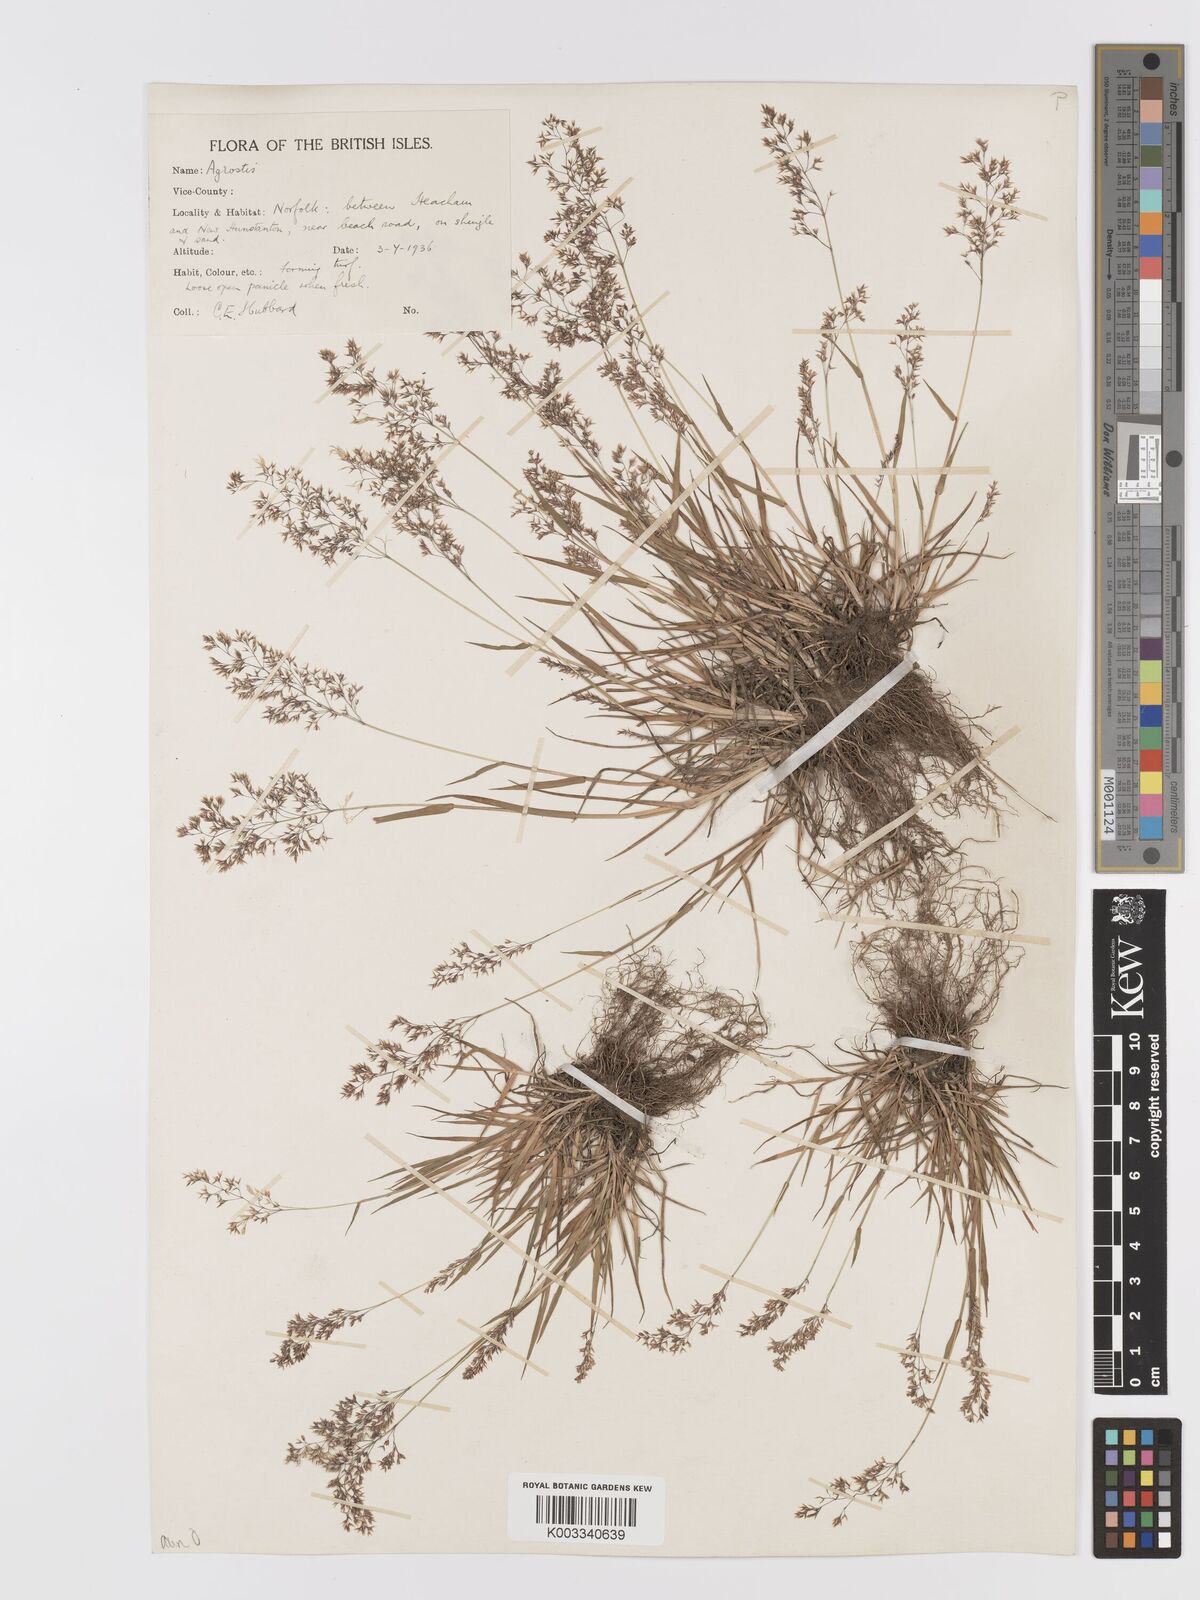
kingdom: Plantae
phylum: Tracheophyta
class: Liliopsida
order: Poales
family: Poaceae
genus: Agrostis
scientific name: Agrostis capillaris
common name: Colonial bentgrass
